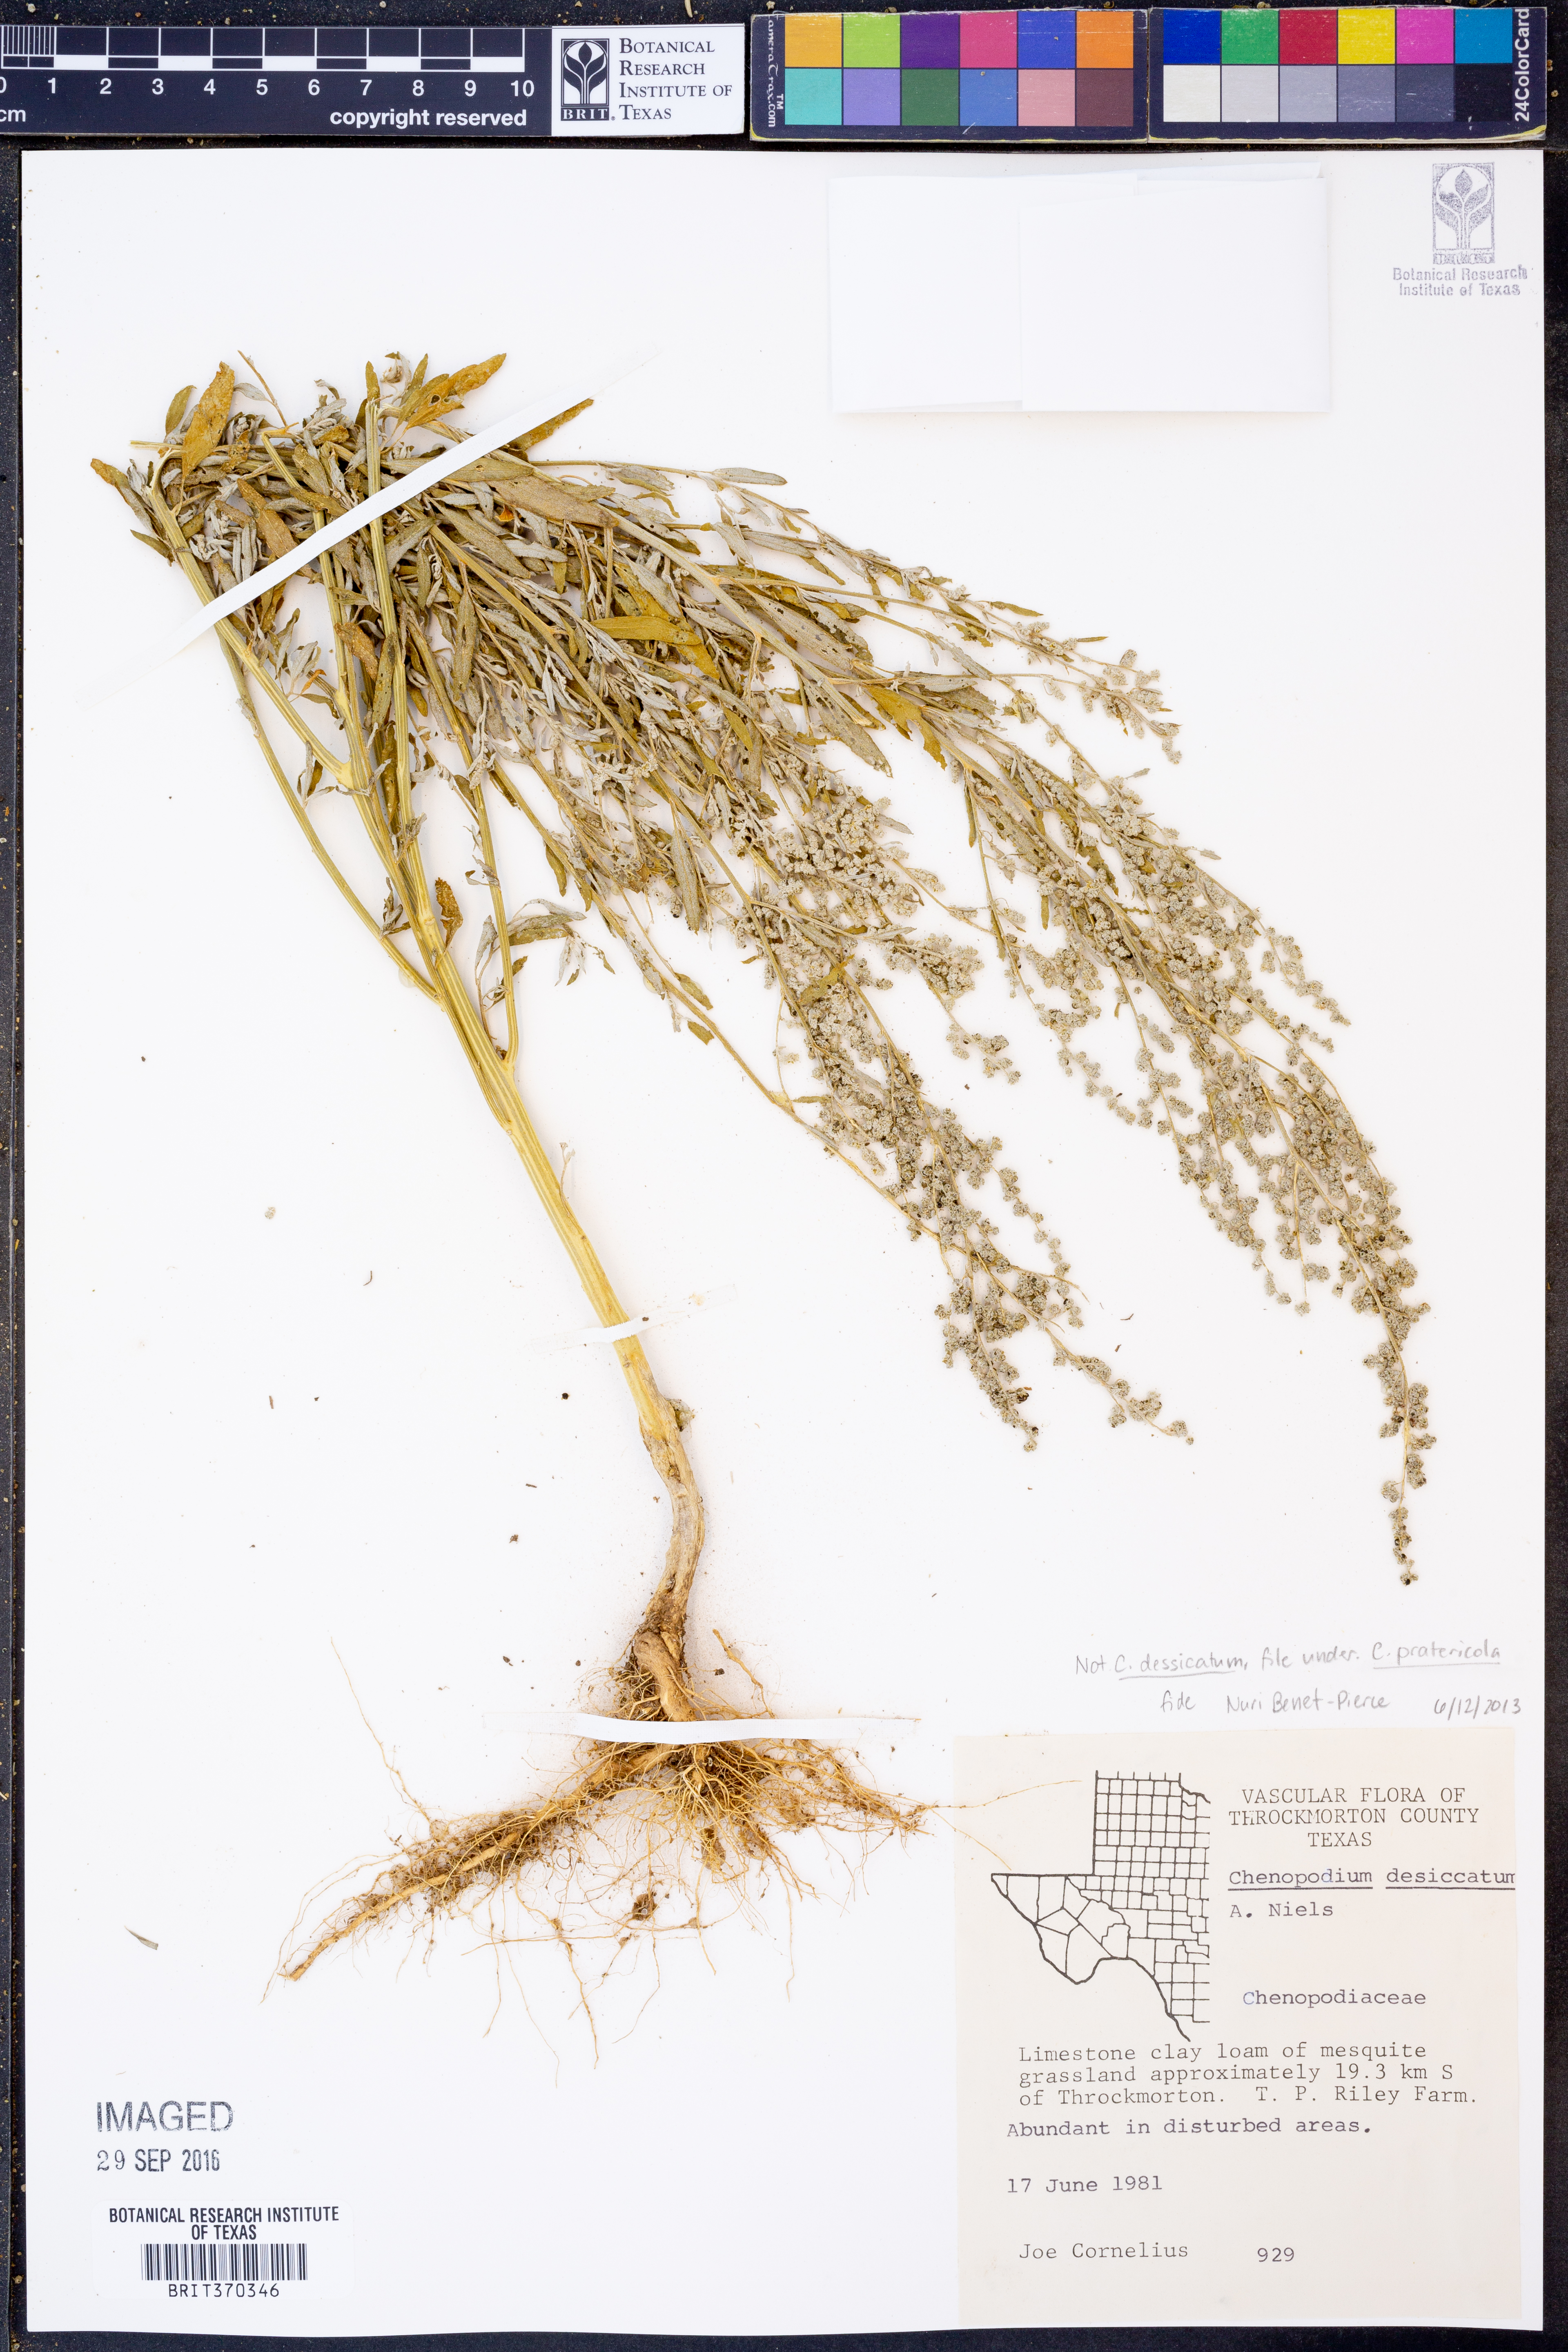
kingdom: Plantae
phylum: Tracheophyta
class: Magnoliopsida
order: Caryophyllales
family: Amaranthaceae
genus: Chenopodium
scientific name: Chenopodium pratericola
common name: Desert goosefoot
